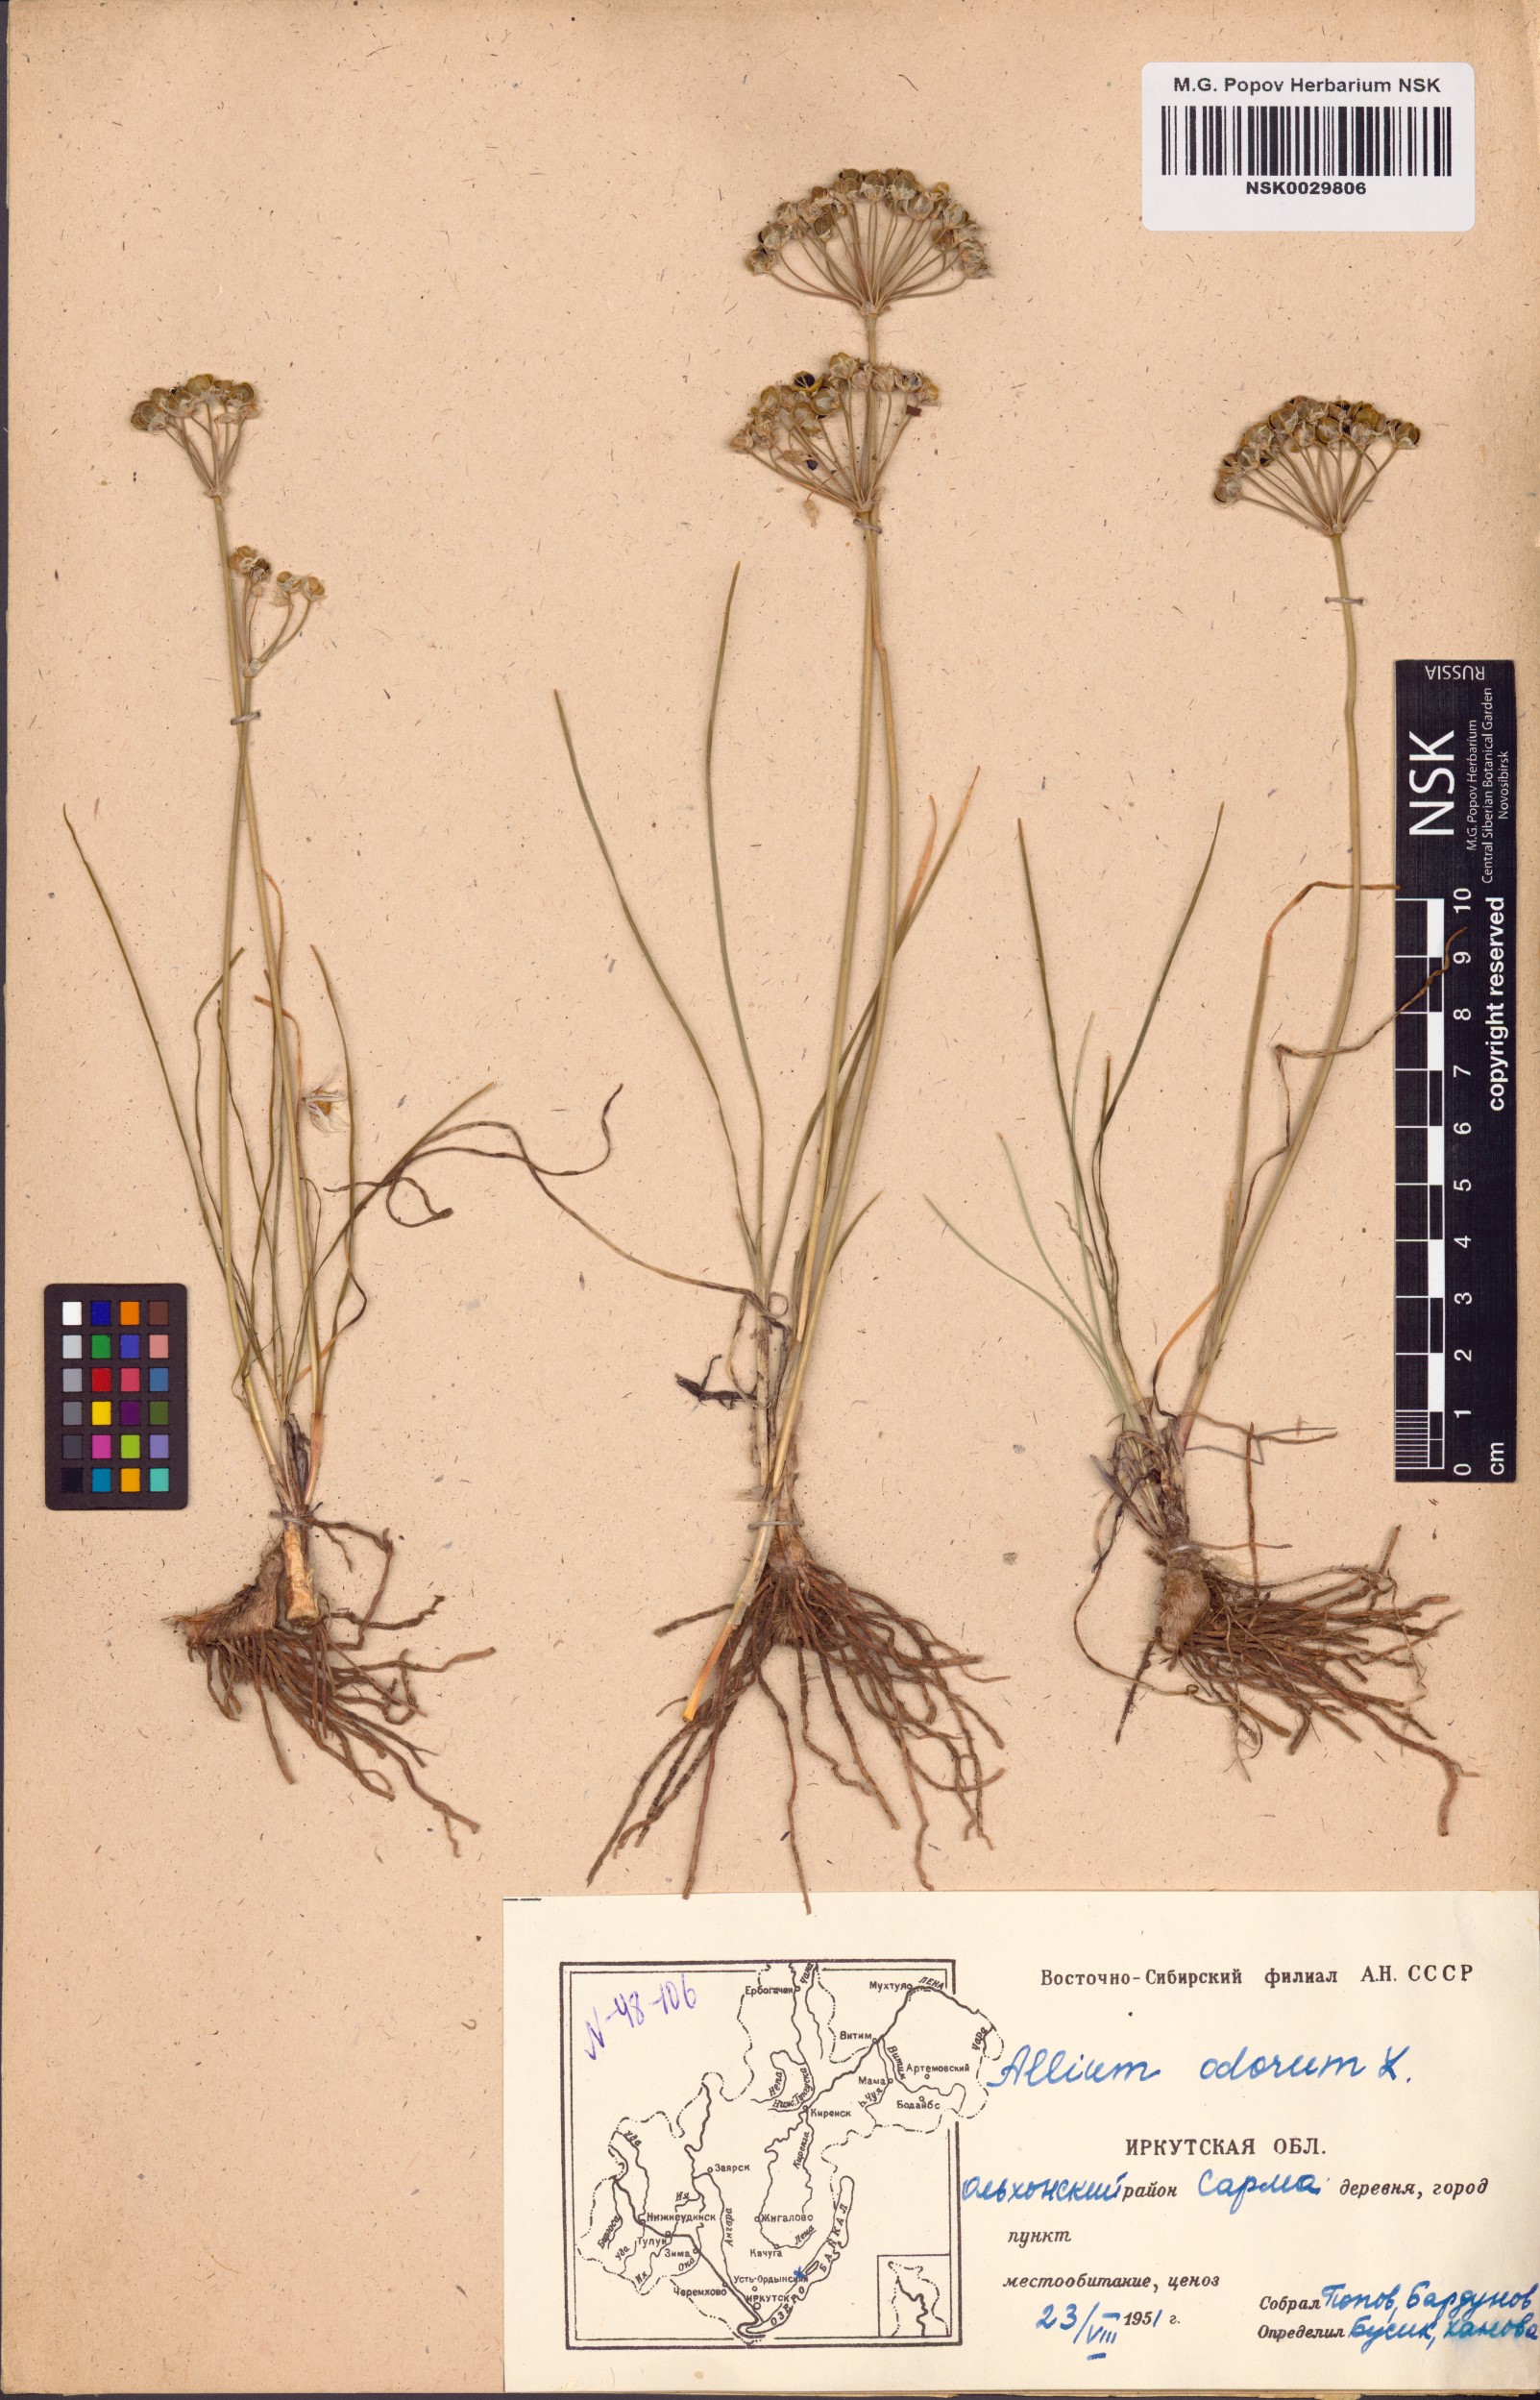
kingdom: Plantae
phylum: Tracheophyta
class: Liliopsida
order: Asparagales
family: Amaryllidaceae
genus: Allium
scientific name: Allium ramosum
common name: Fragrant garlic
